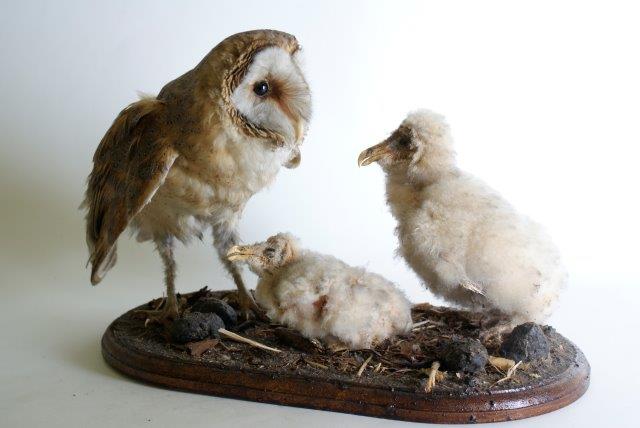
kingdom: Animalia
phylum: Chordata
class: Aves
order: Strigiformes
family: Tytonidae
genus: Tyto
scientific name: Tyto alba
